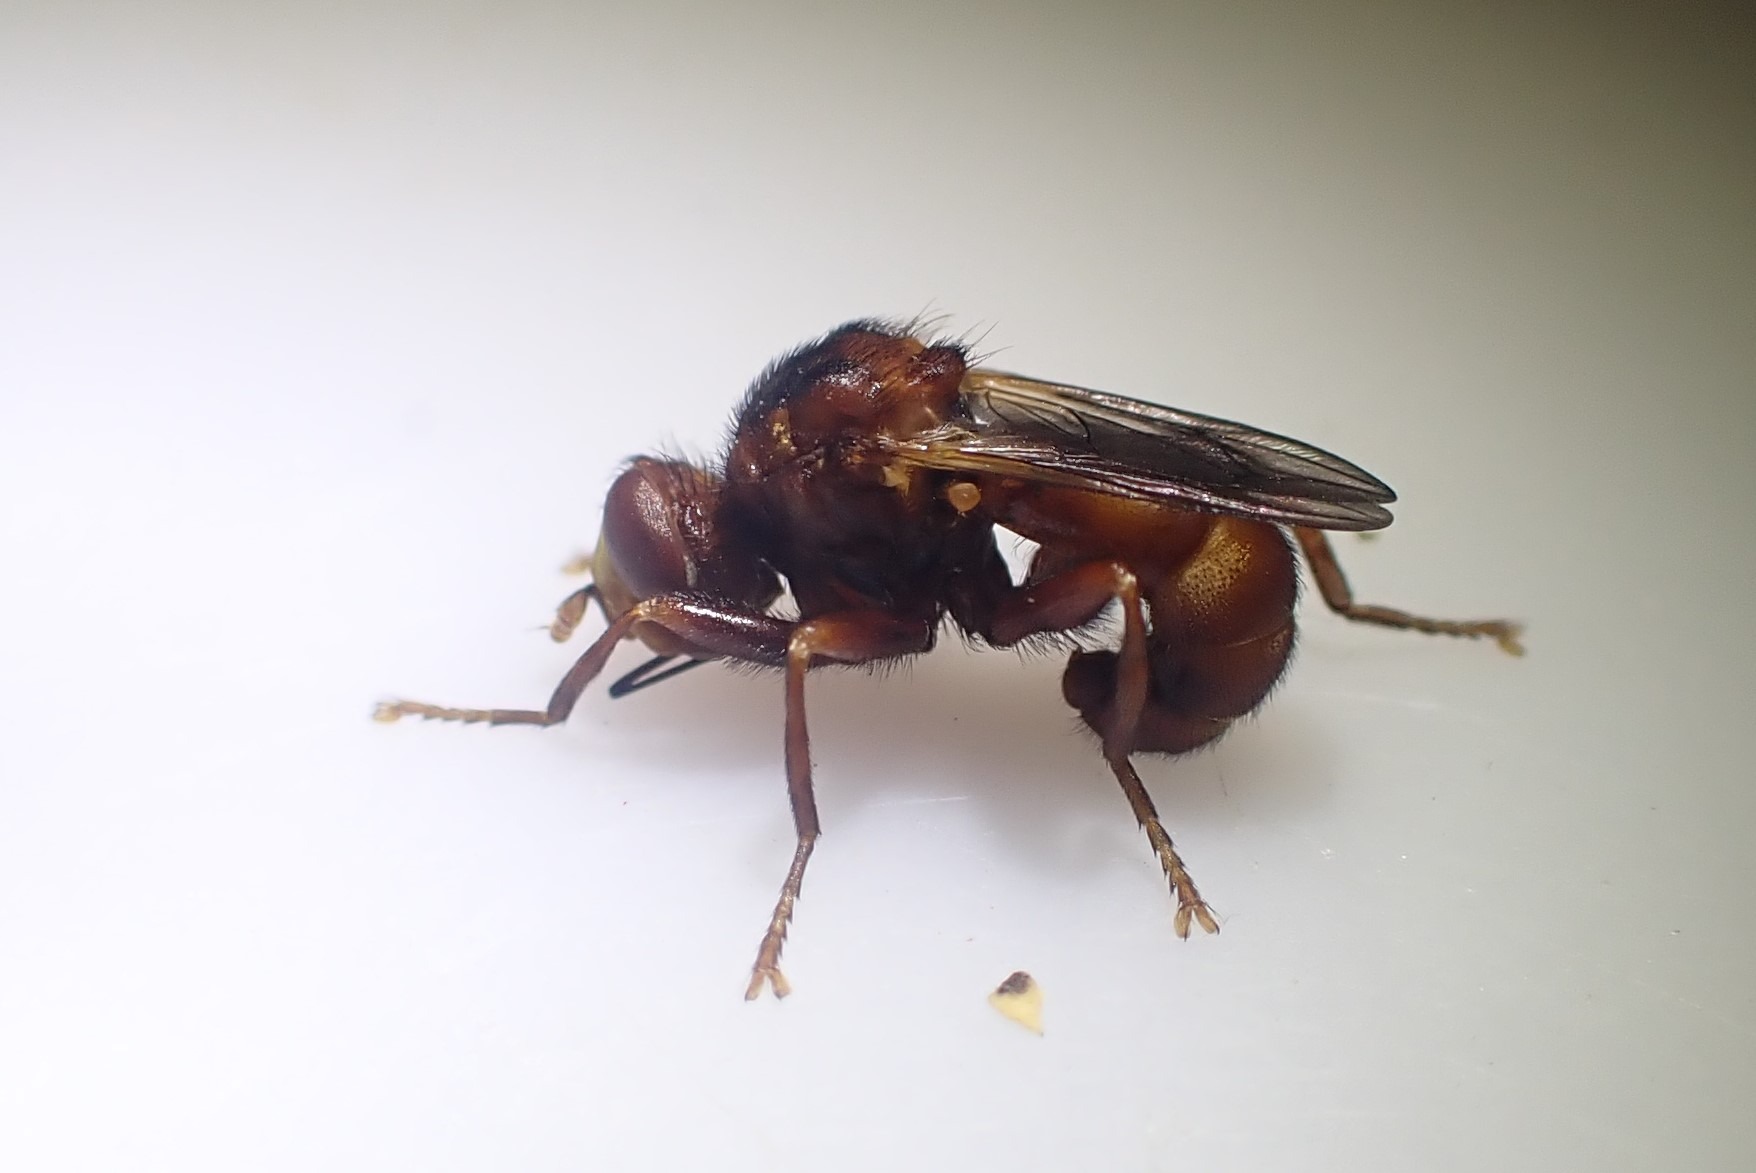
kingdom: Animalia
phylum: Arthropoda
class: Insecta
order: Diptera
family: Conopidae
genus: Sicus
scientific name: Sicus ferrugineus
